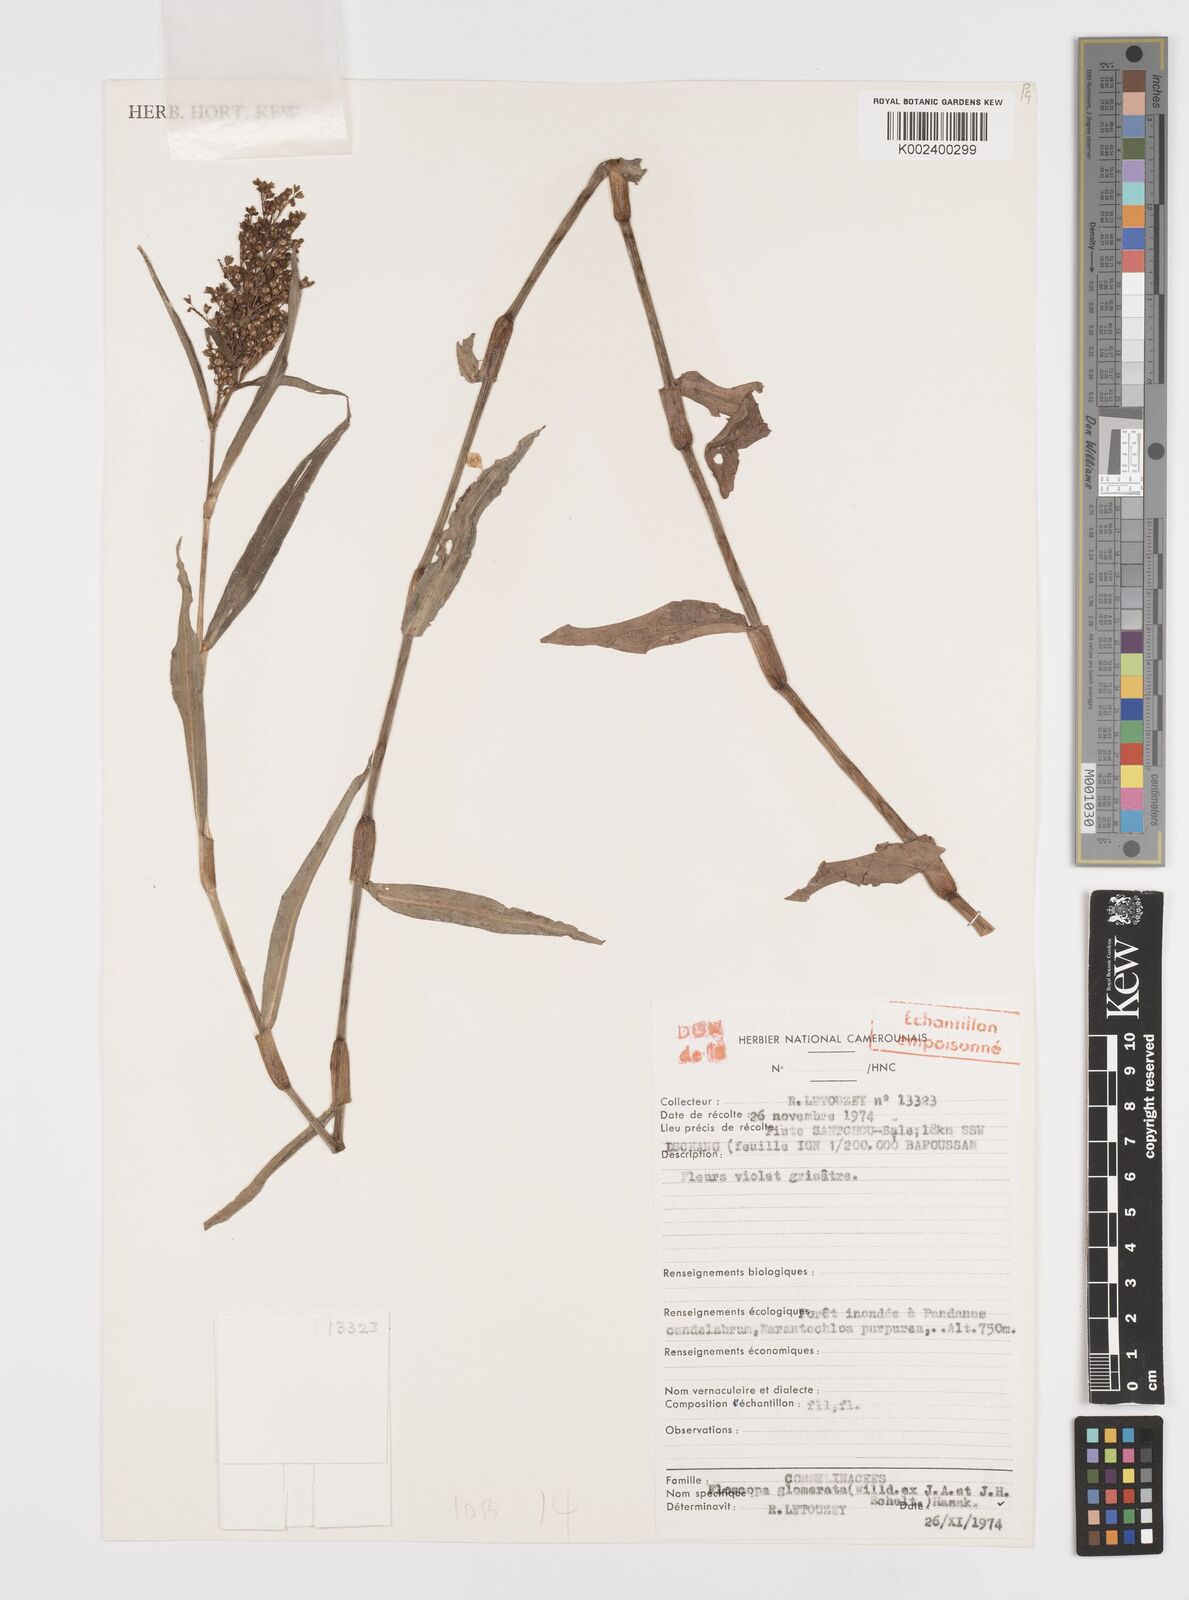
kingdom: Plantae
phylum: Tracheophyta
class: Liliopsida
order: Commelinales
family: Commelinaceae
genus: Floscopa
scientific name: Floscopa glomerata
